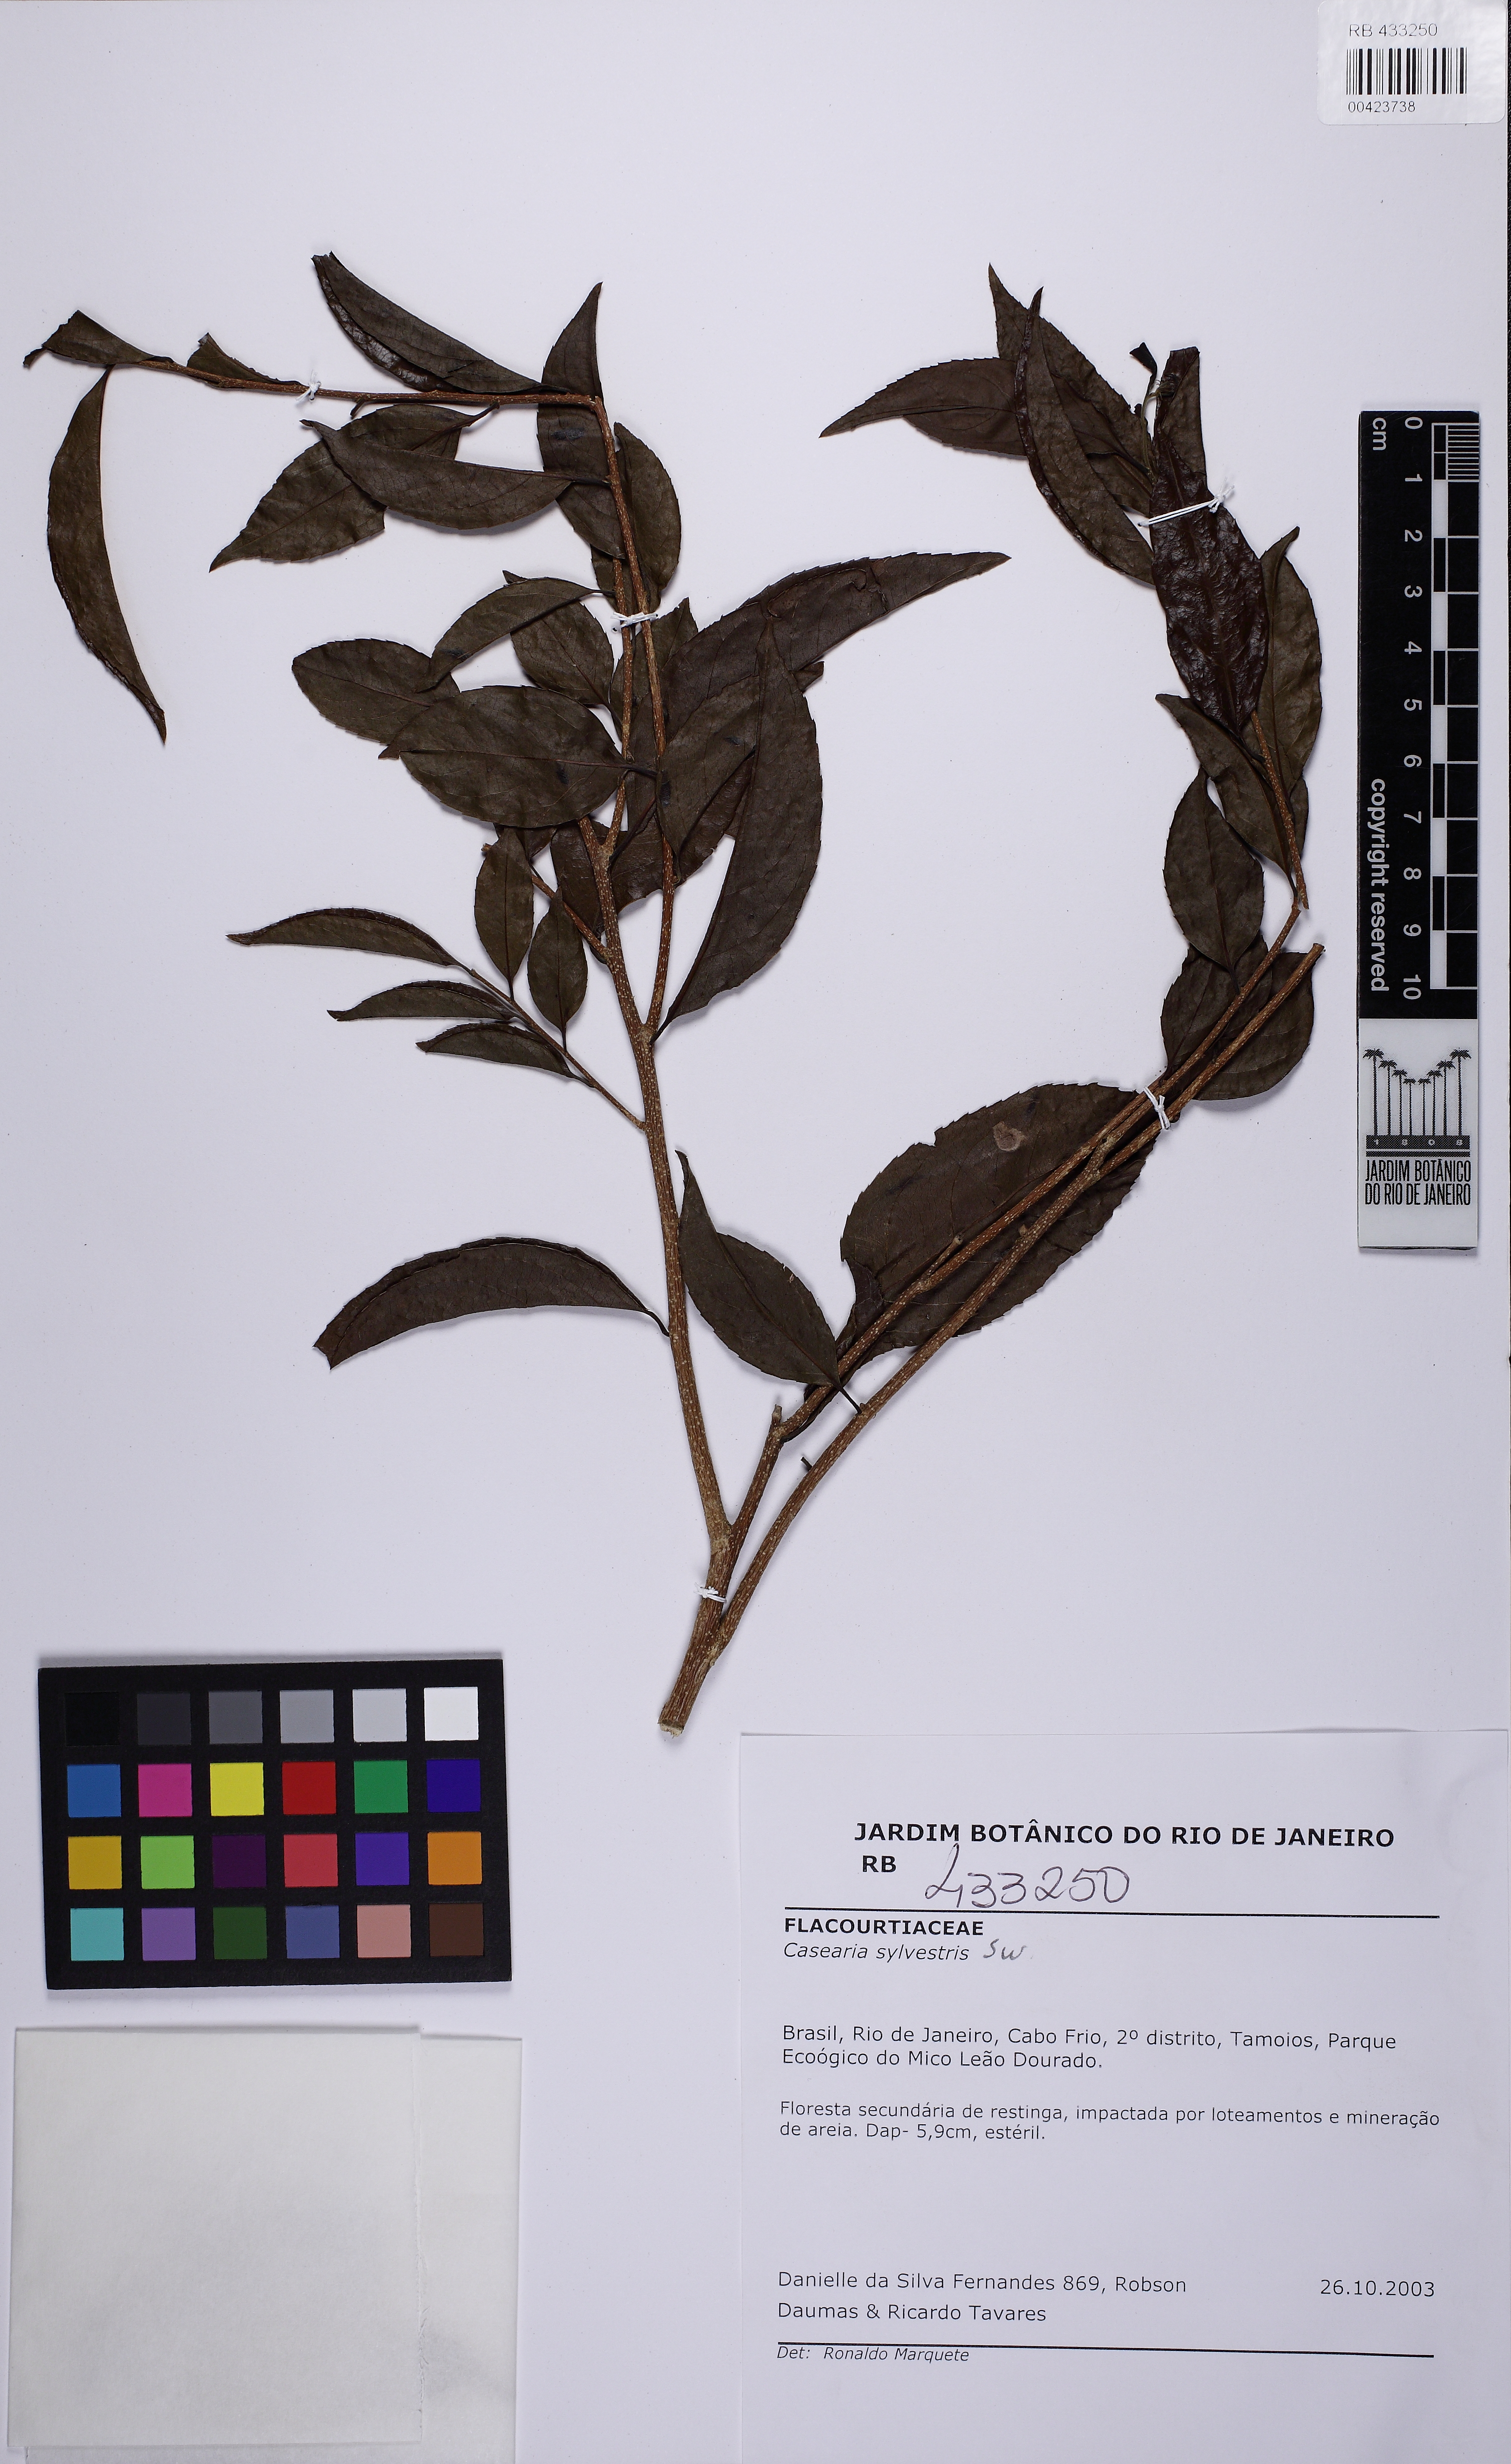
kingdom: Plantae
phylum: Tracheophyta
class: Magnoliopsida
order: Malpighiales
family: Salicaceae
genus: Casearia
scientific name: Casearia sylvestris
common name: Wild sage
